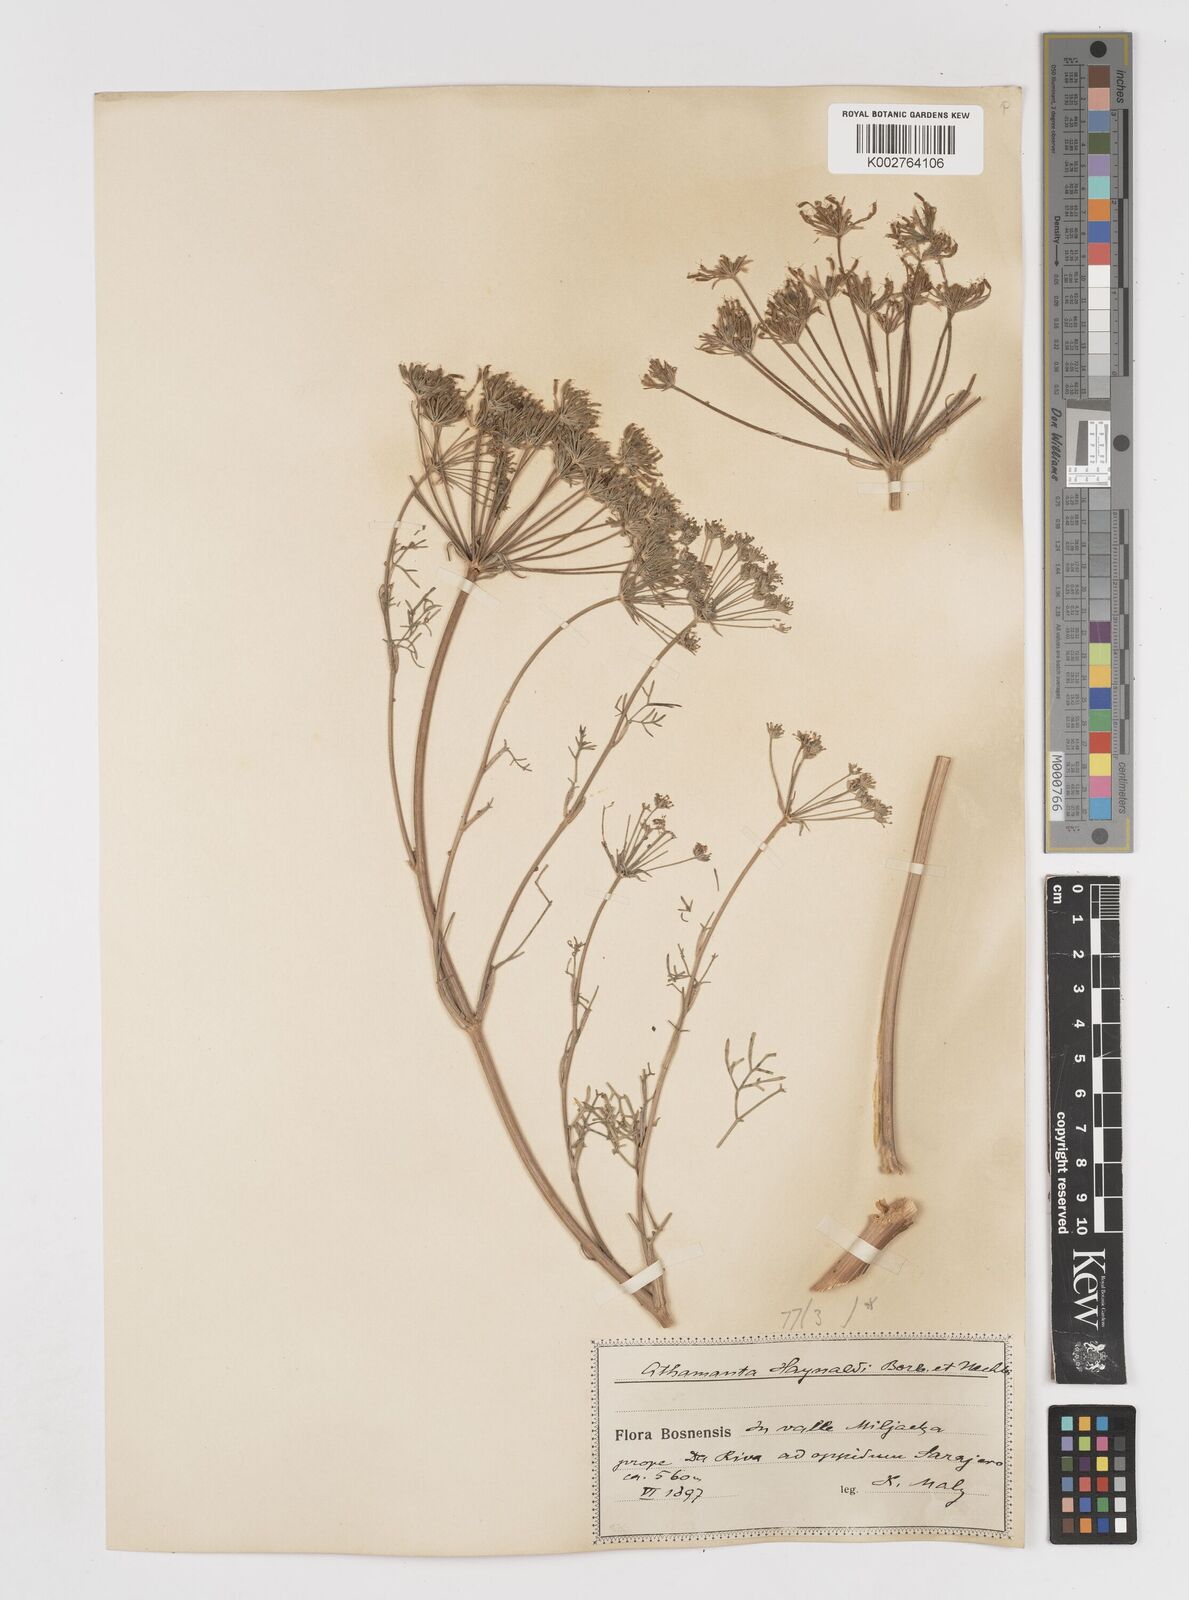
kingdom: Plantae
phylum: Tracheophyta
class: Magnoliopsida
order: Apiales
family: Apiaceae
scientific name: Apiaceae
